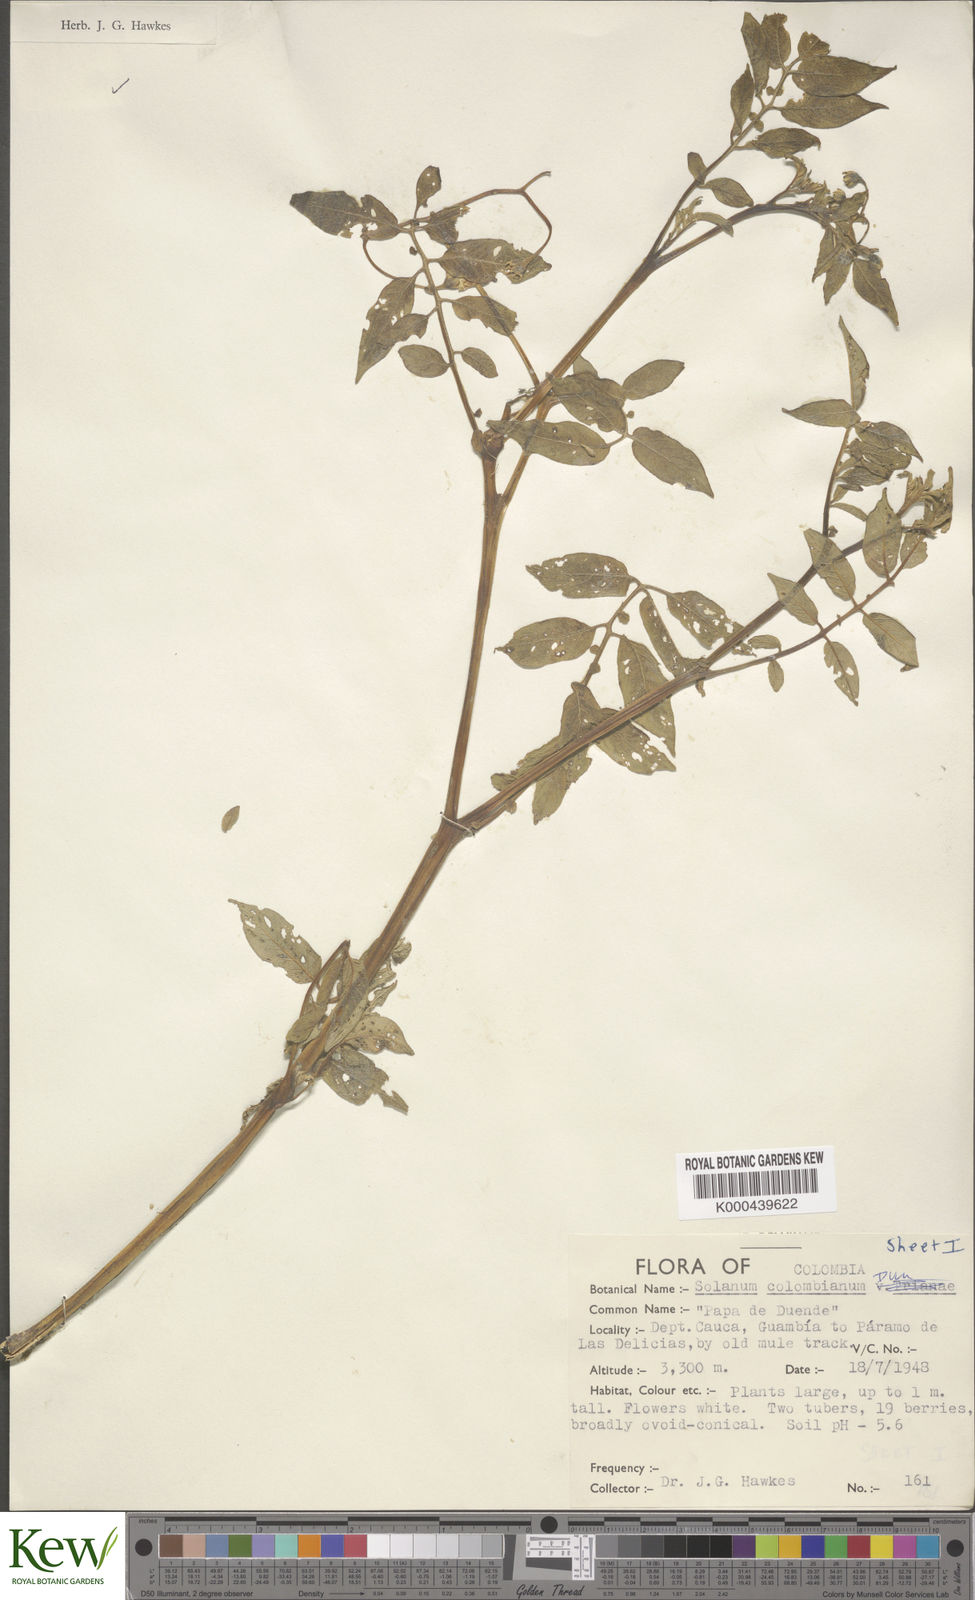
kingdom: Plantae
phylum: Tracheophyta
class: Magnoliopsida
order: Solanales
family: Solanaceae
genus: Solanum
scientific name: Solanum colombianum
